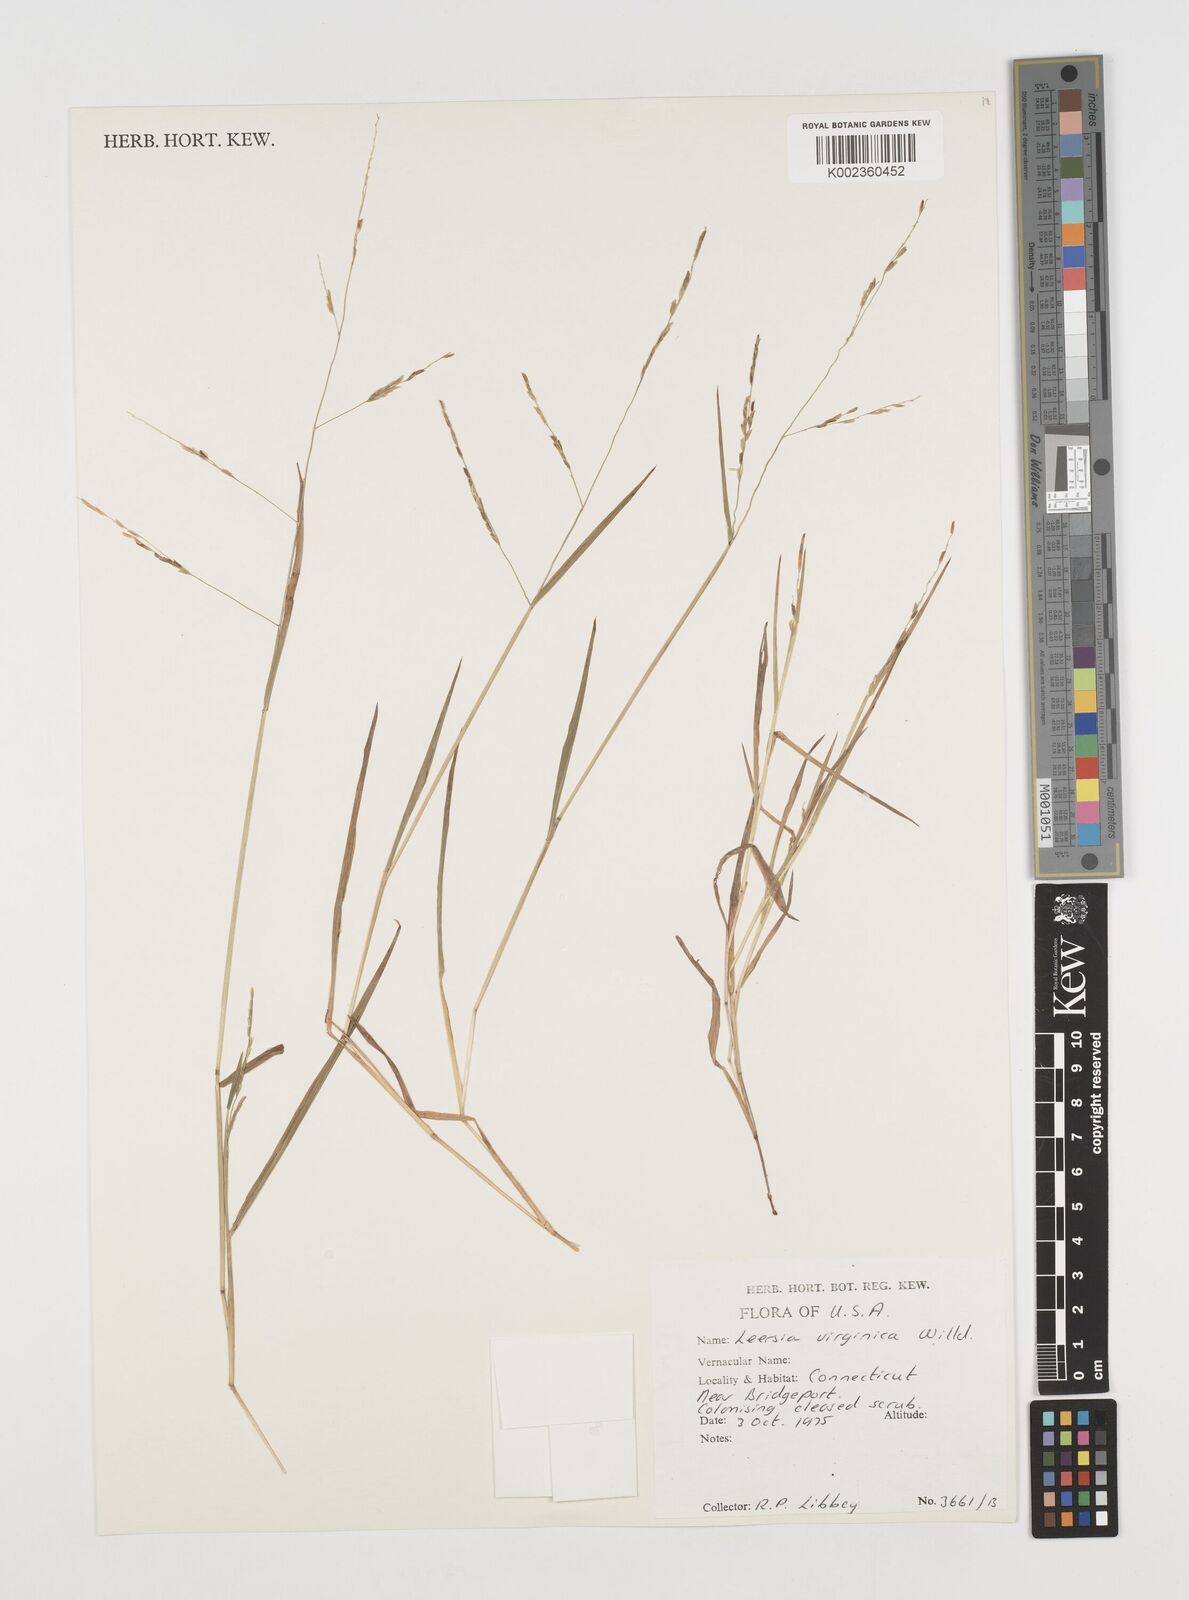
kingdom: Plantae
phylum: Tracheophyta
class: Liliopsida
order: Poales
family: Poaceae
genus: Leersia
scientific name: Leersia virginica
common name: White cutgrass
